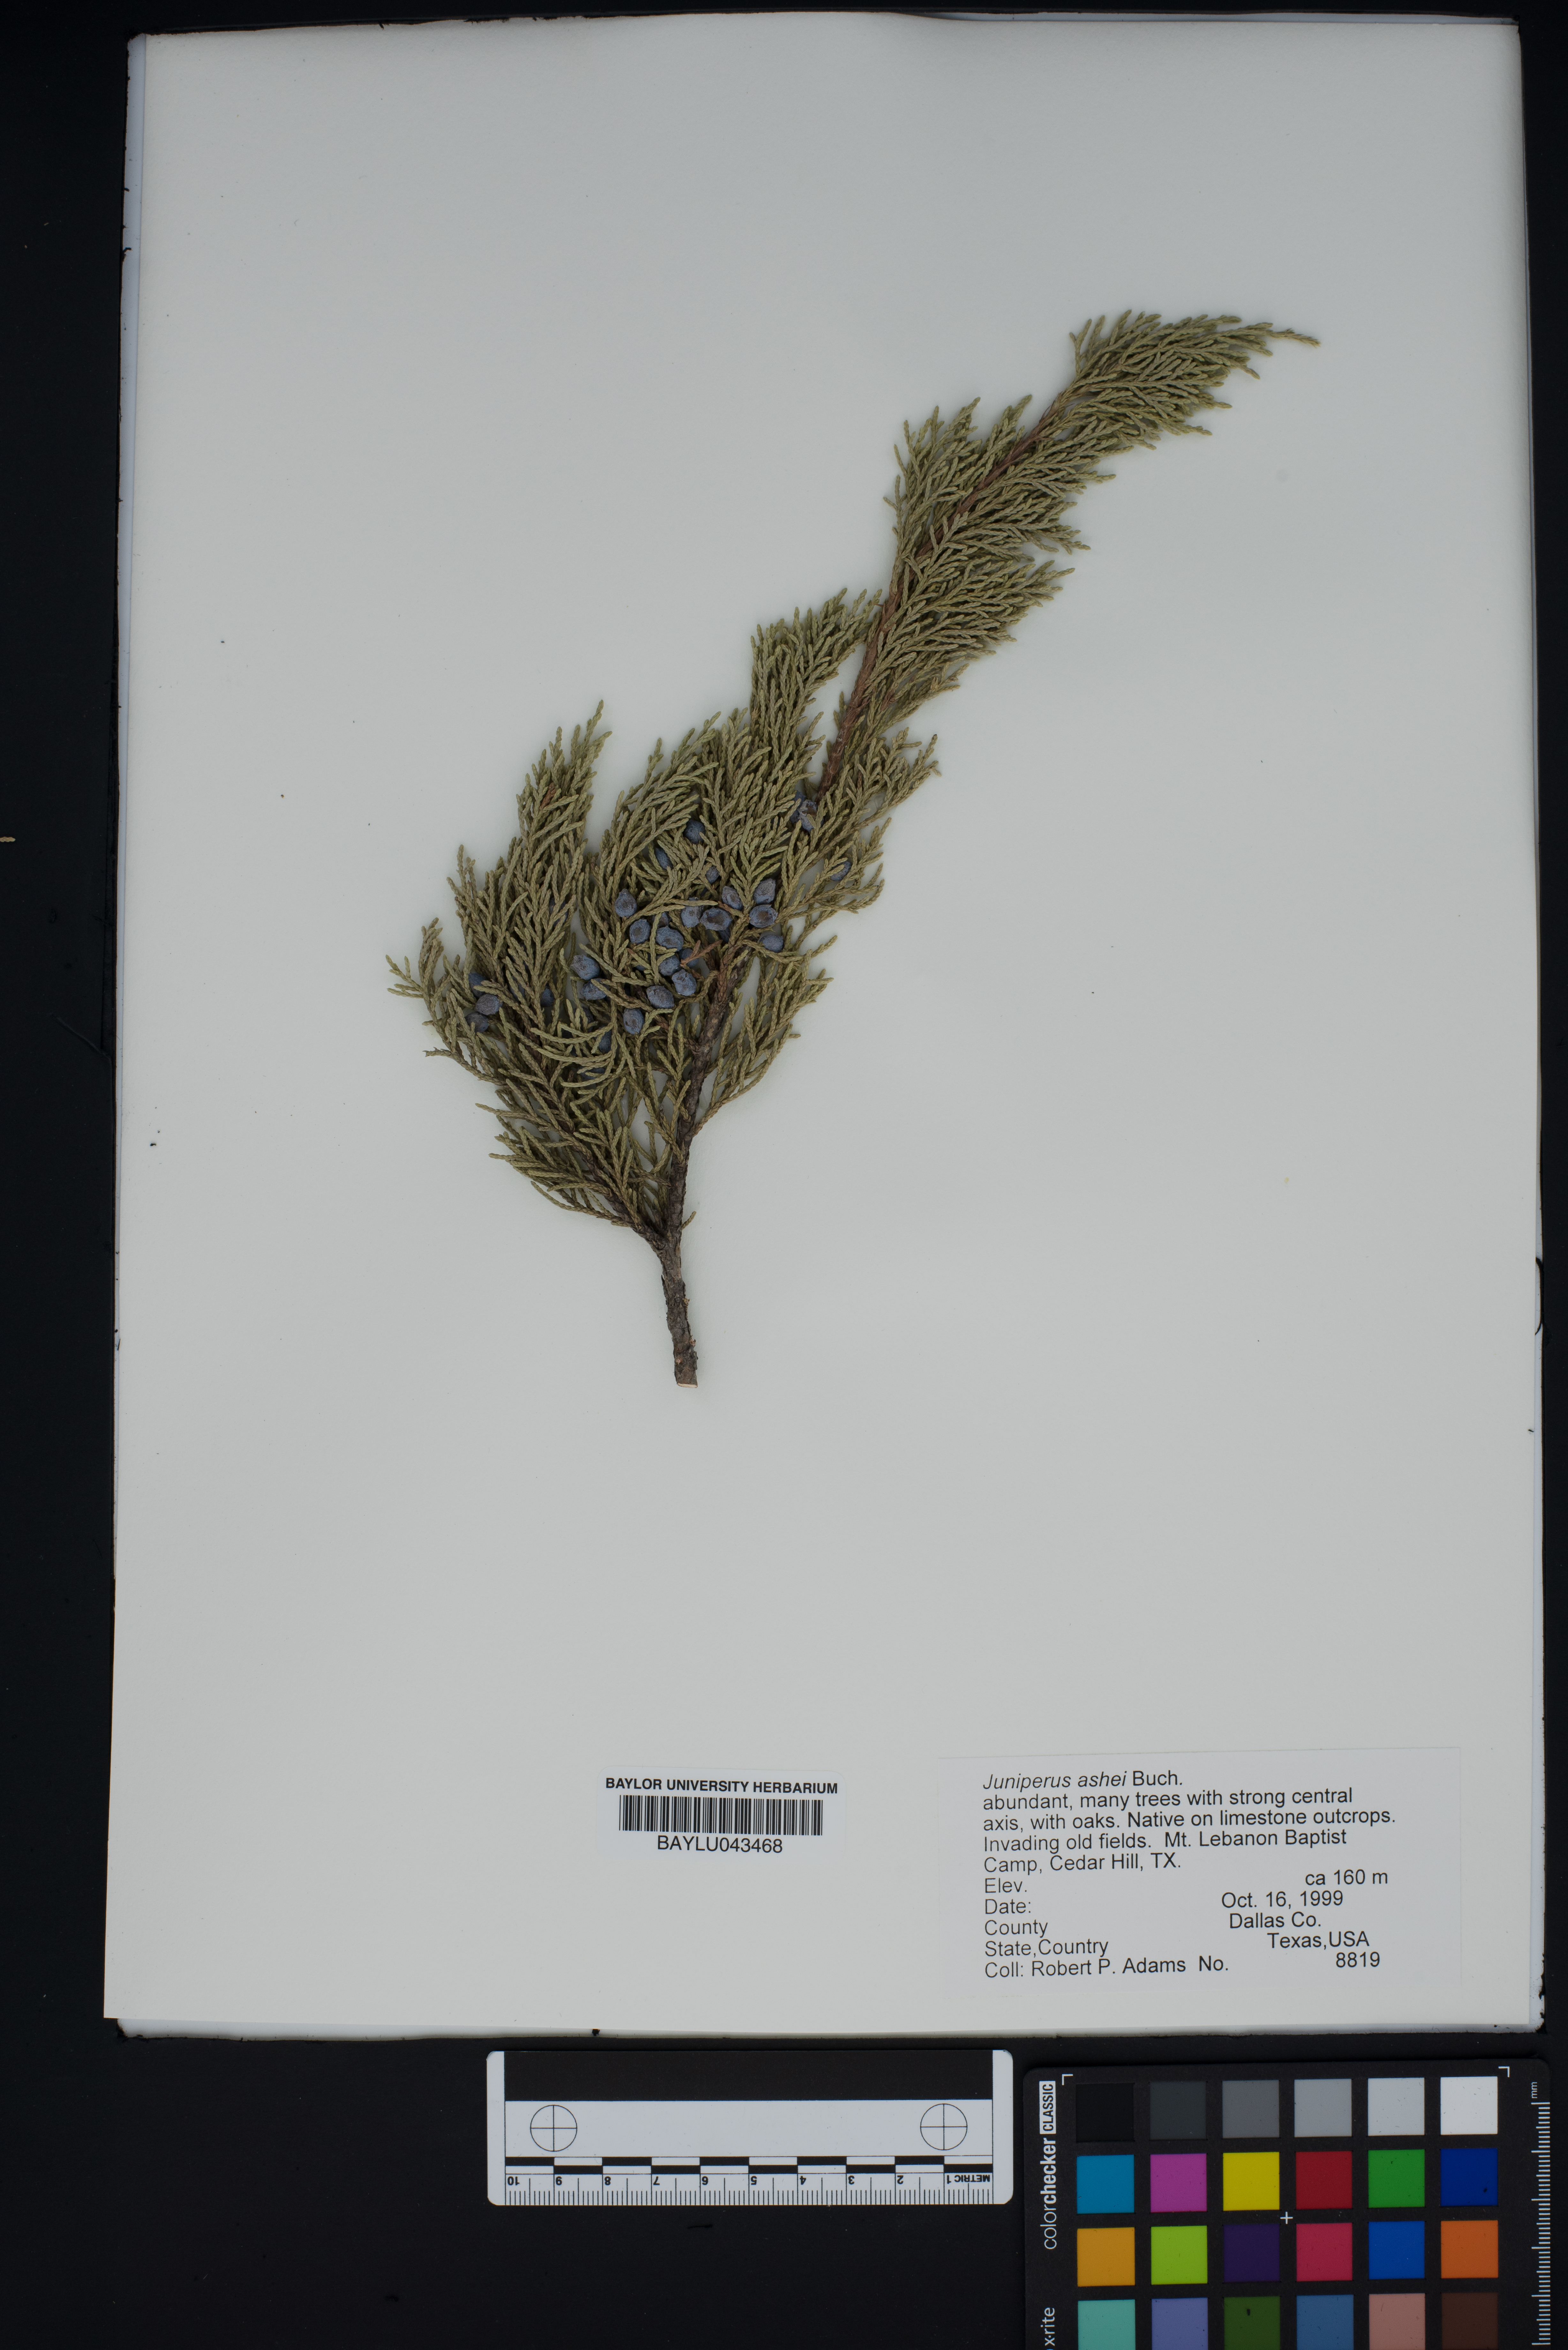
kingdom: Plantae
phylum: Tracheophyta
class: Pinopsida
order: Pinales
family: Cupressaceae
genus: Juniperus
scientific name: Juniperus ashei
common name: Mexican juniper
